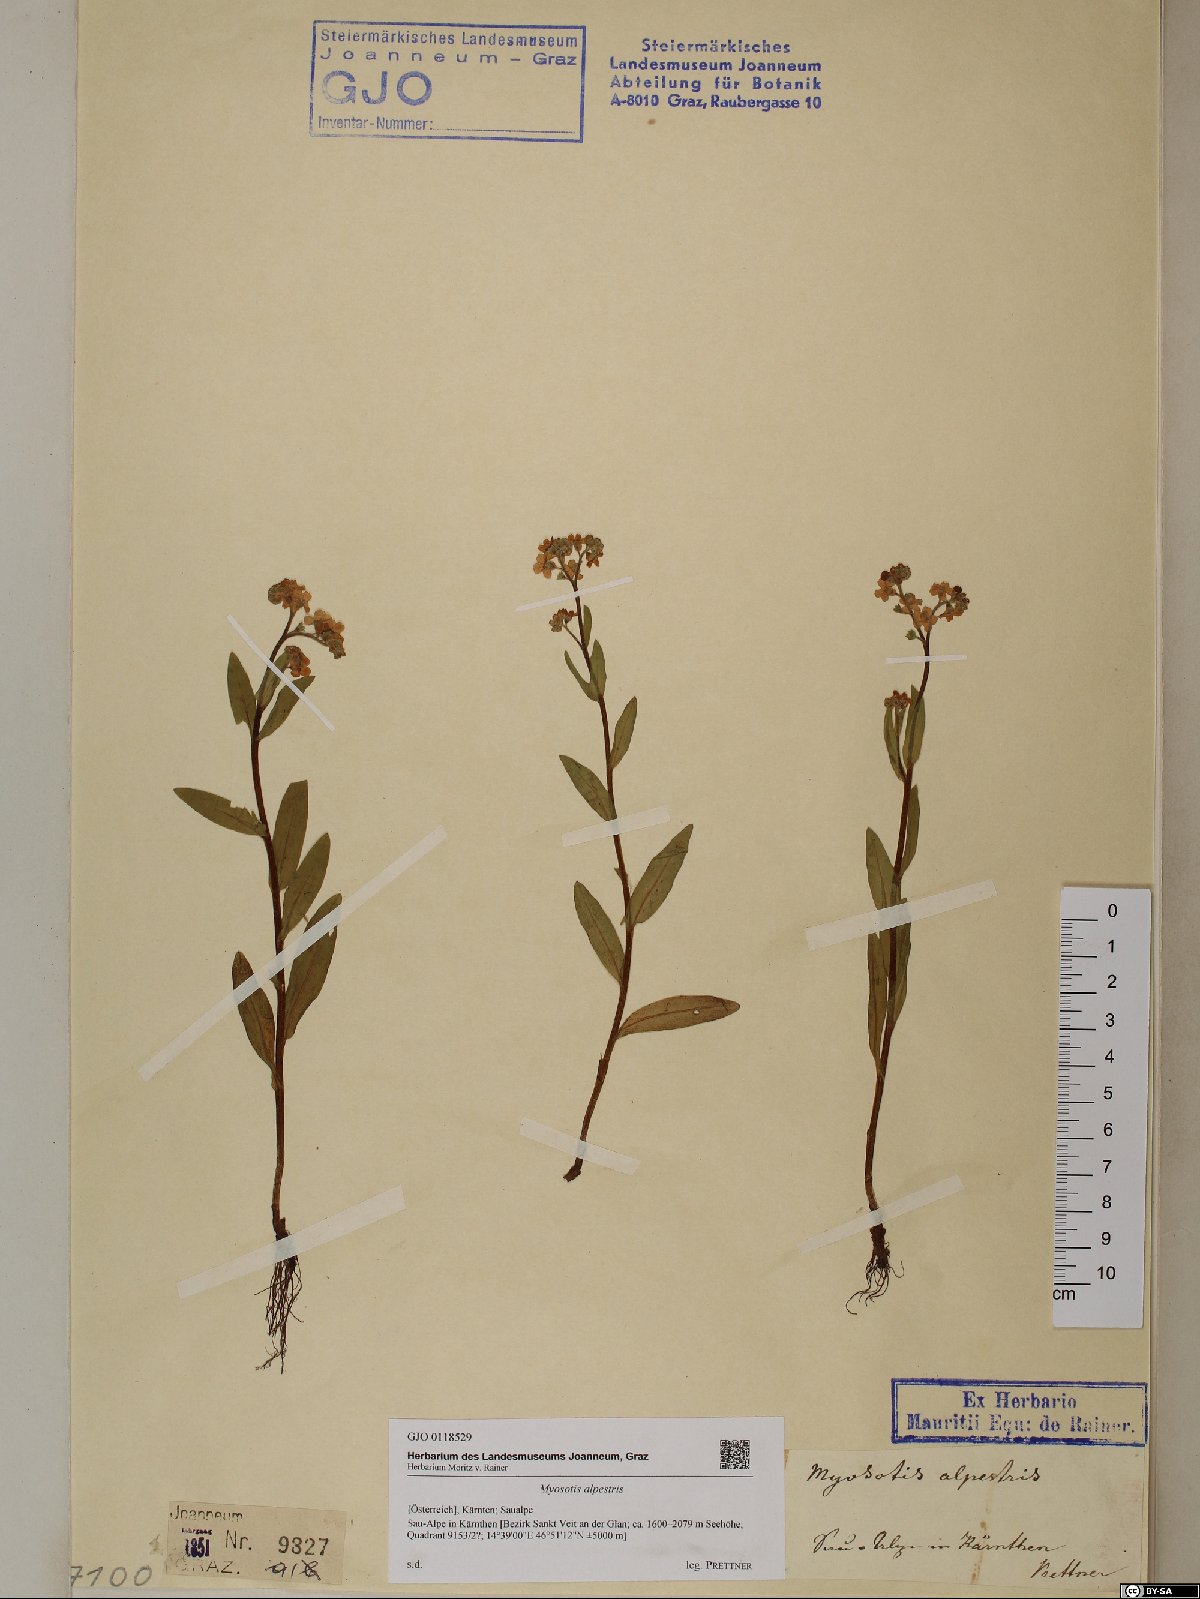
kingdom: Plantae
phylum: Tracheophyta
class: Magnoliopsida
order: Boraginales
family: Boraginaceae
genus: Myosotis
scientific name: Myosotis alpestris
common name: Alpine forget-me-not
